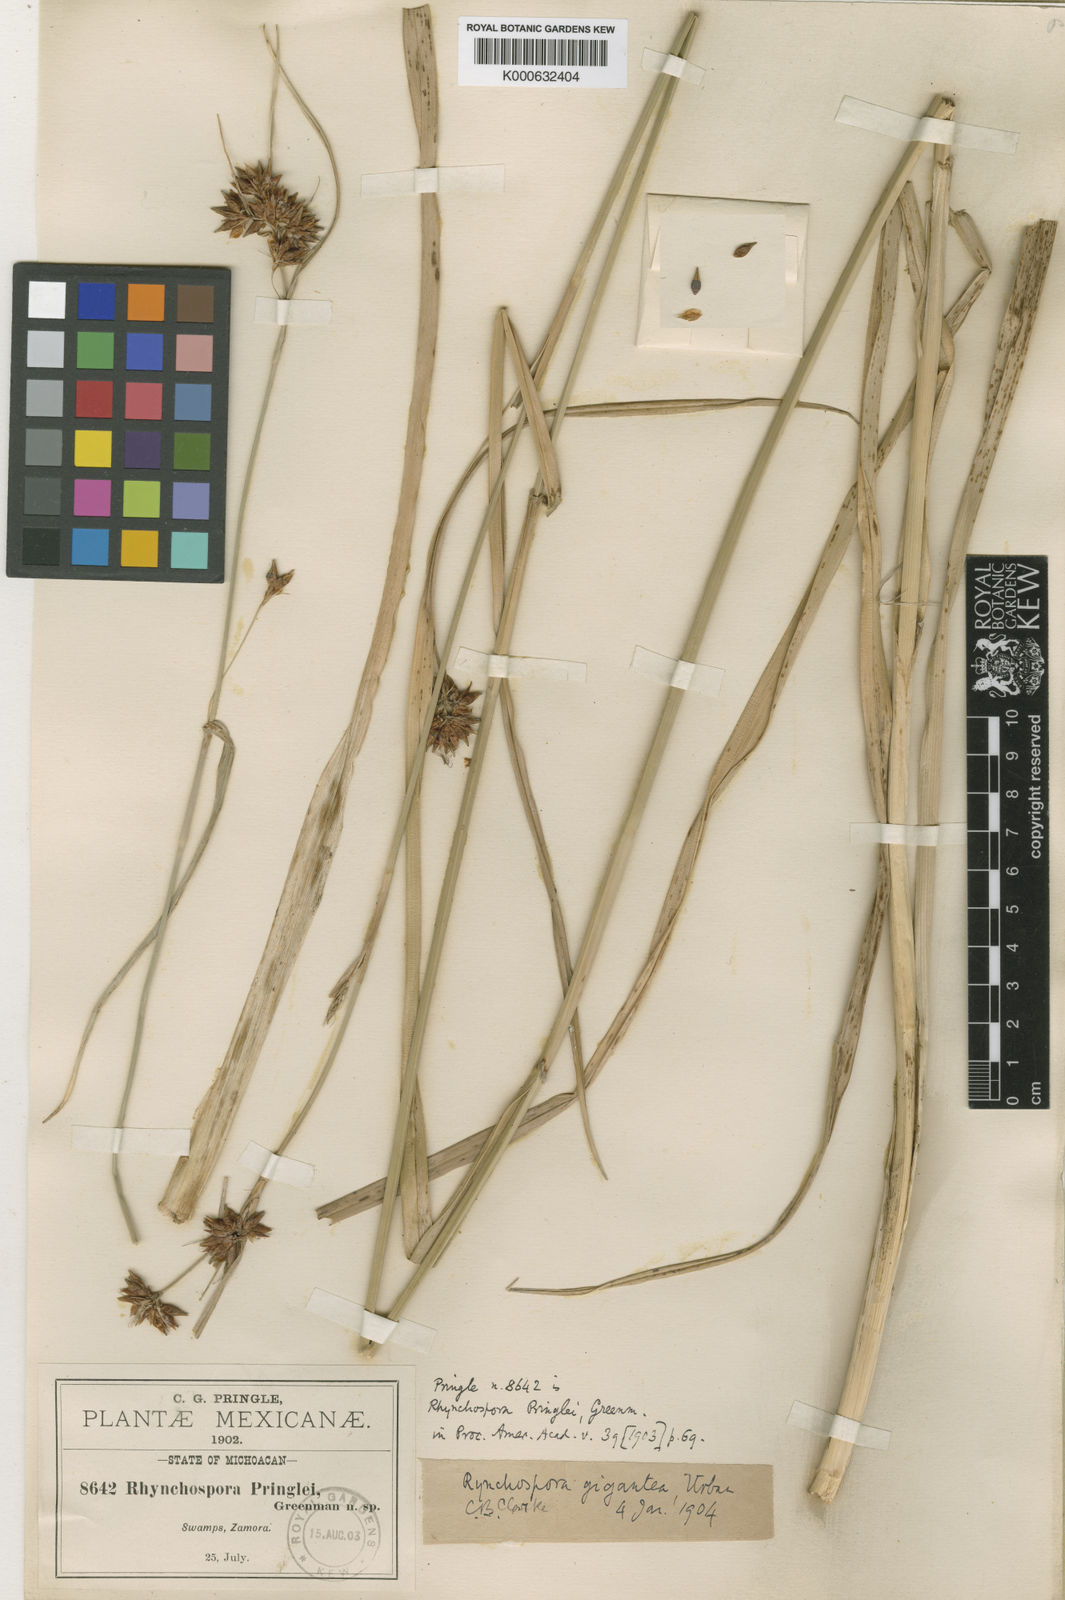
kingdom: Plantae
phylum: Tracheophyta
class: Liliopsida
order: Poales
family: Cyperaceae
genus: Rhynchospora
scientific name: Rhynchospora
